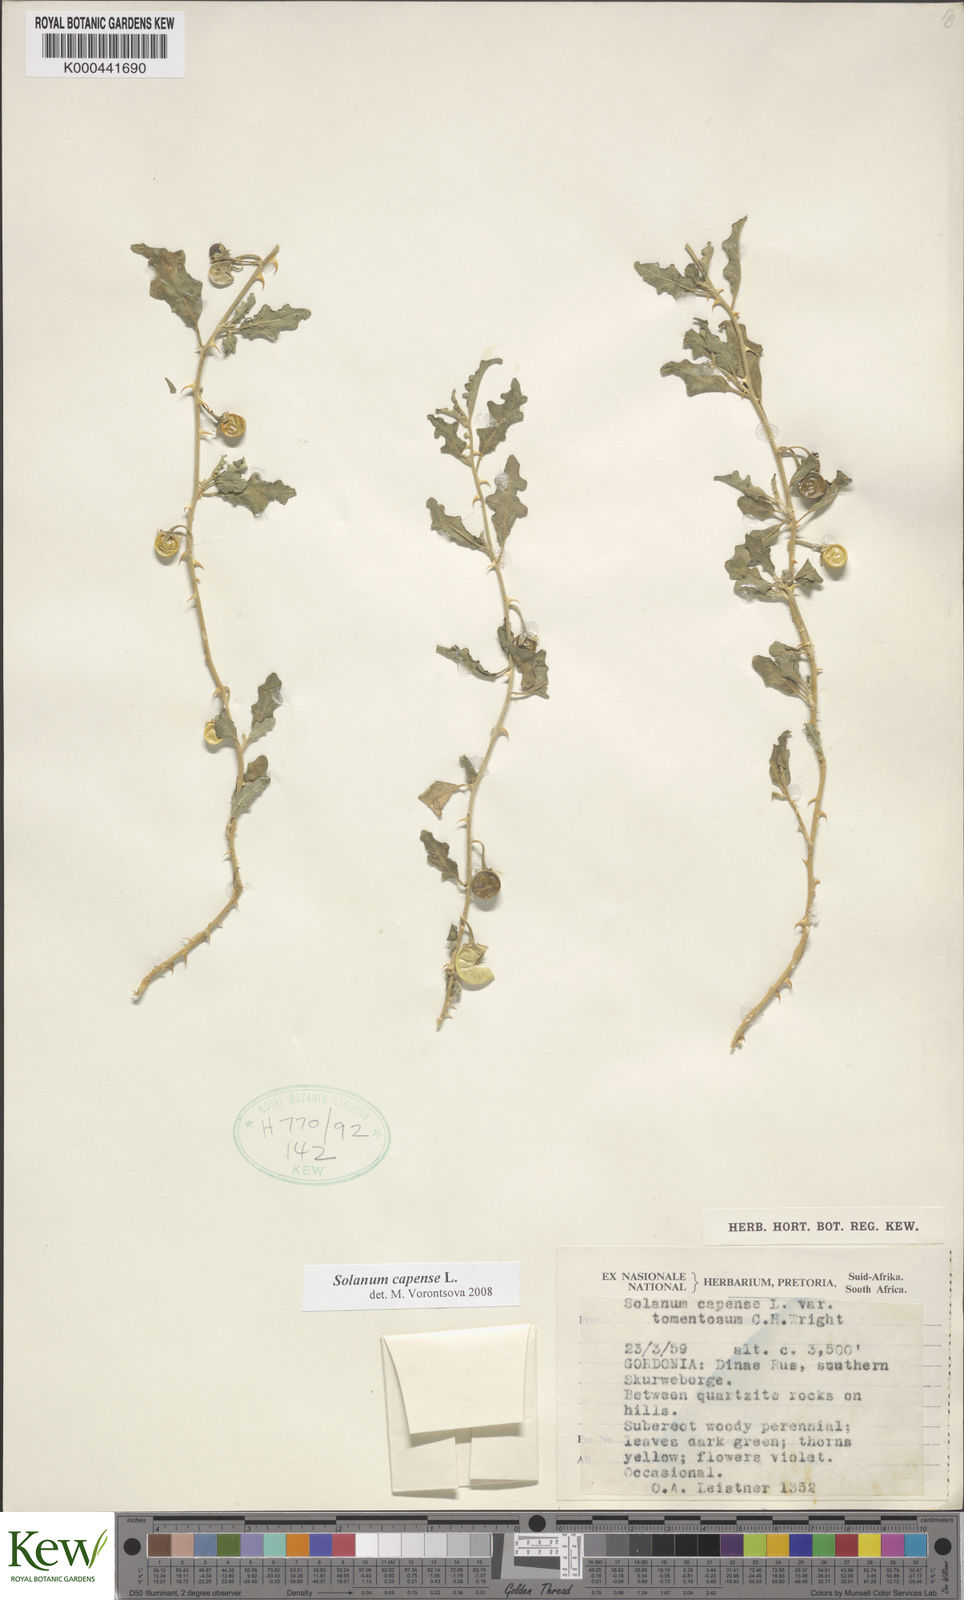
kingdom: Plantae
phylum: Tracheophyta
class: Magnoliopsida
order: Solanales
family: Solanaceae
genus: Solanum
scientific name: Solanum capense
